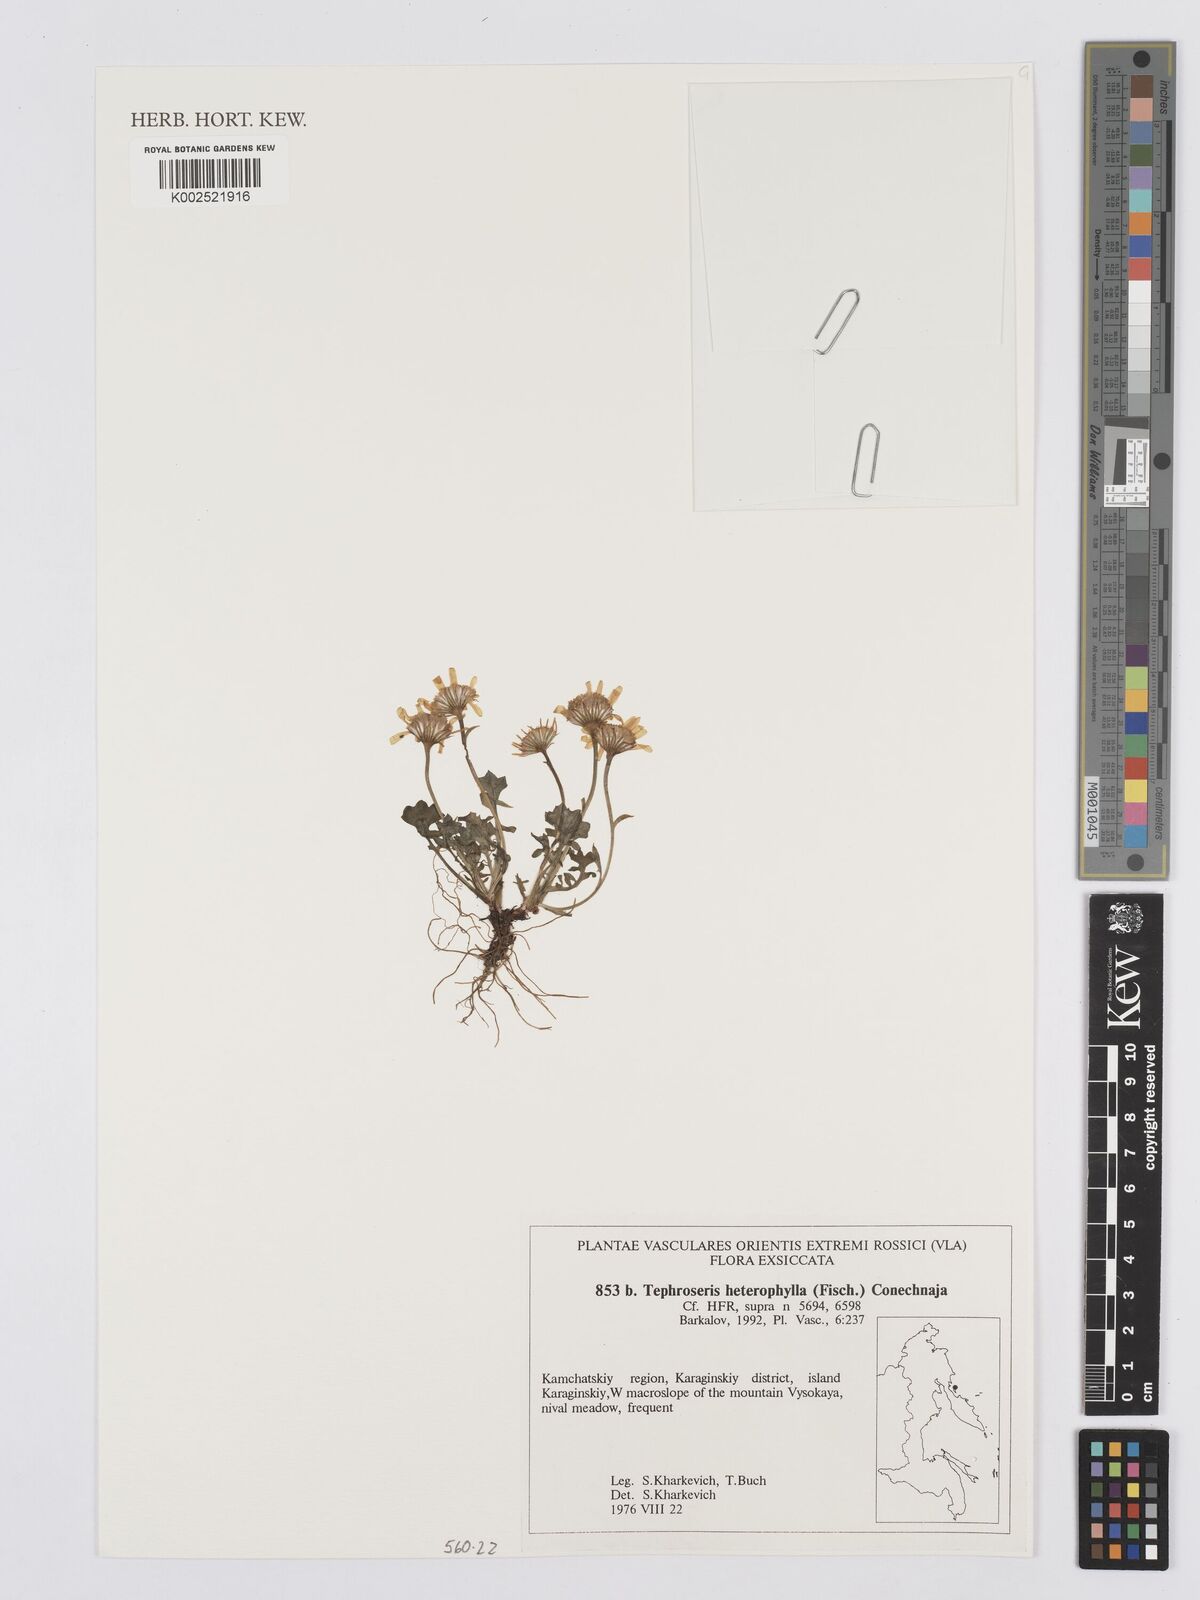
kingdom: Plantae
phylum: Tracheophyta
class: Magnoliopsida
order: Asterales
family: Asteraceae
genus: Packera
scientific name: Packera heterophylla
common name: Arctic butterweed
